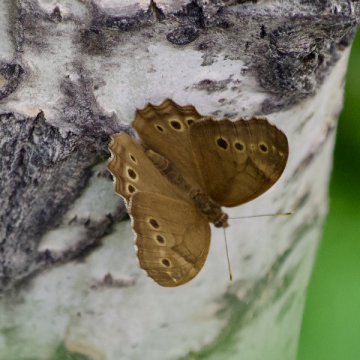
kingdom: Animalia
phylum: Arthropoda
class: Insecta
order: Lepidoptera
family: Nymphalidae
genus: Lethe
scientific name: Lethe anthedon
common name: Northern Pearly-Eye
